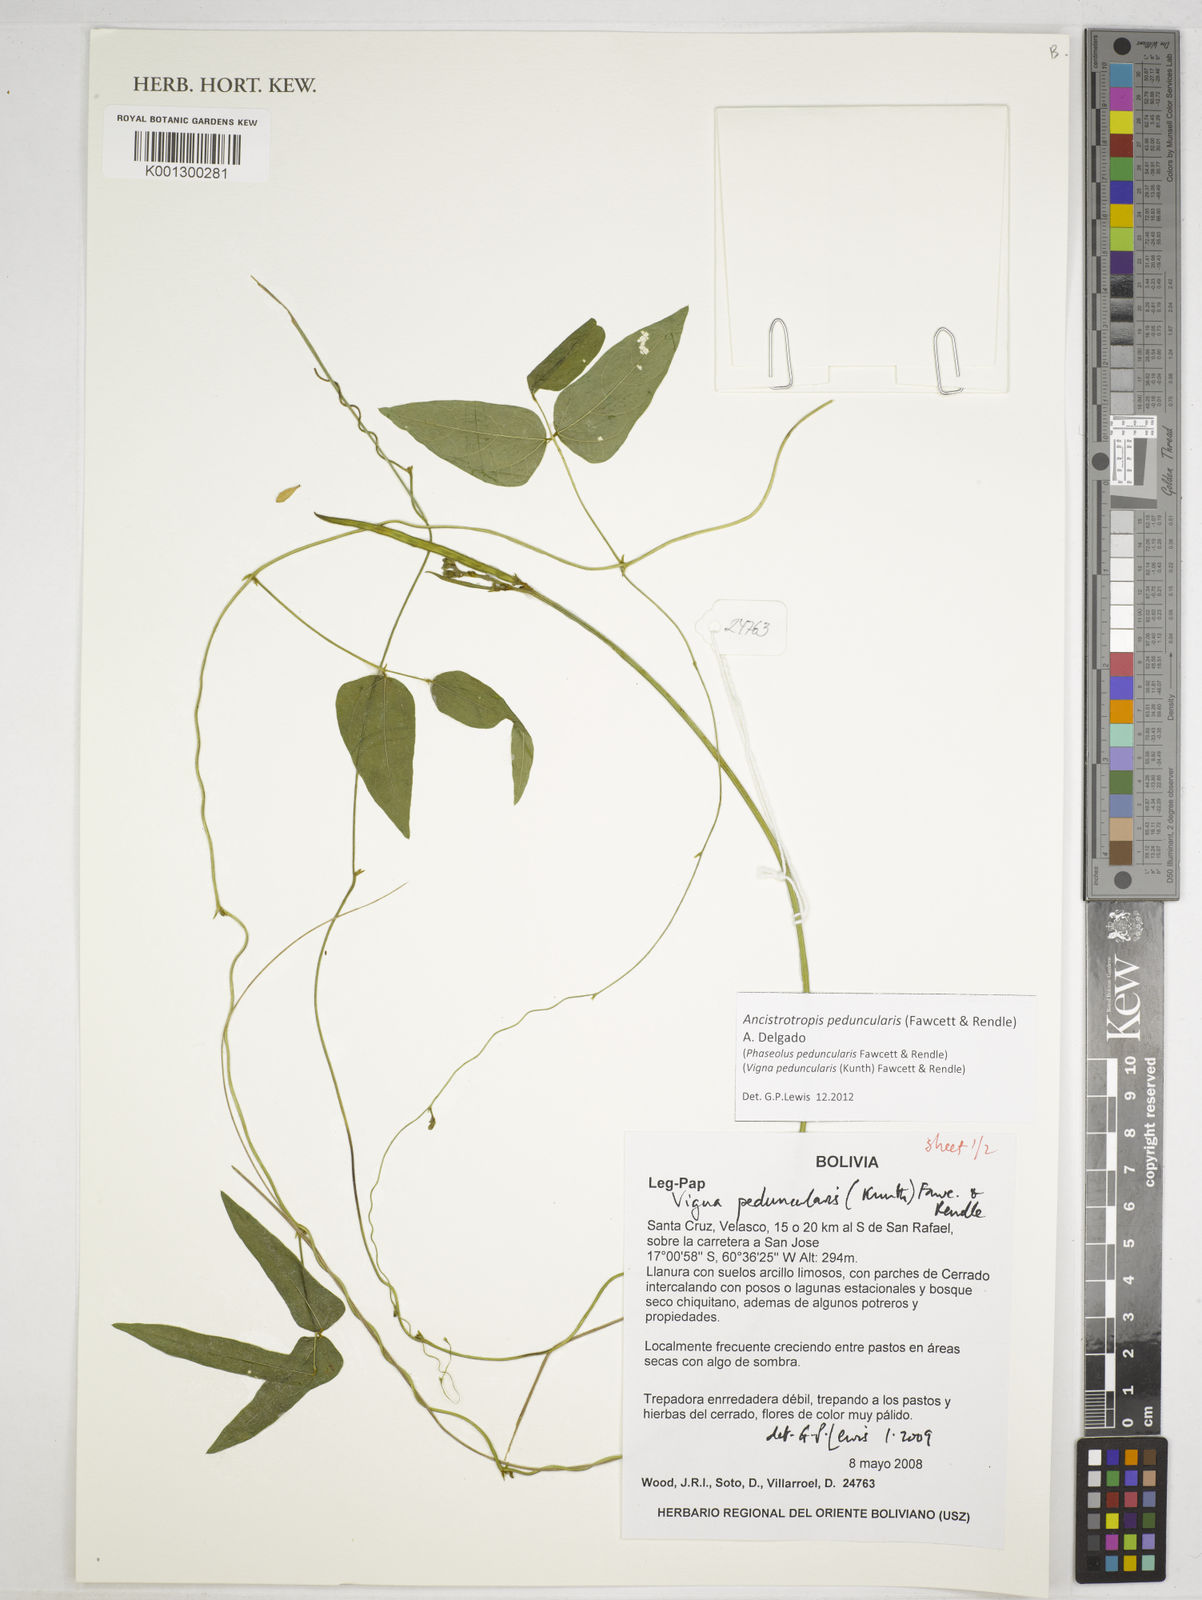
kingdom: Plantae
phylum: Tracheophyta
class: Magnoliopsida
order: Fabales
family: Fabaceae
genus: Ancistrotropis
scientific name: Ancistrotropis peduncularis
